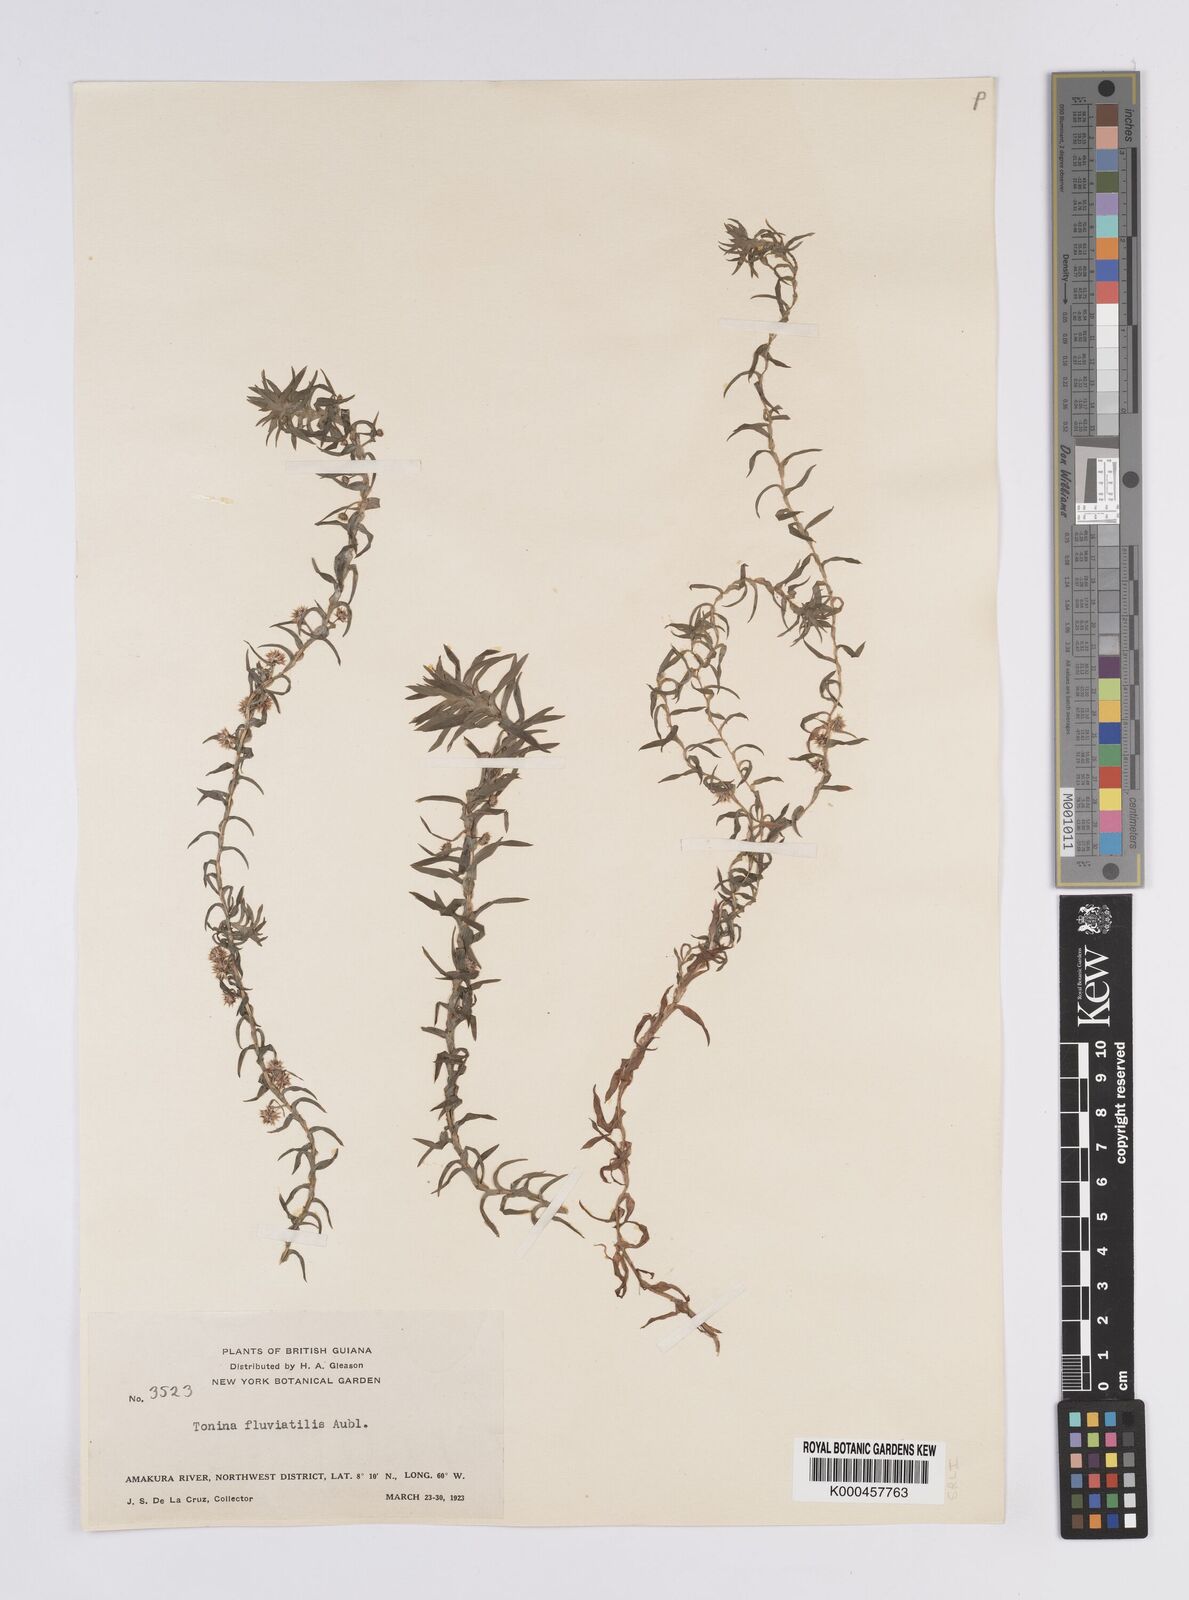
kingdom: Plantae
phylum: Tracheophyta
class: Liliopsida
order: Poales
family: Eriocaulaceae
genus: Paepalanthus
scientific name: Paepalanthus fluviatilis
